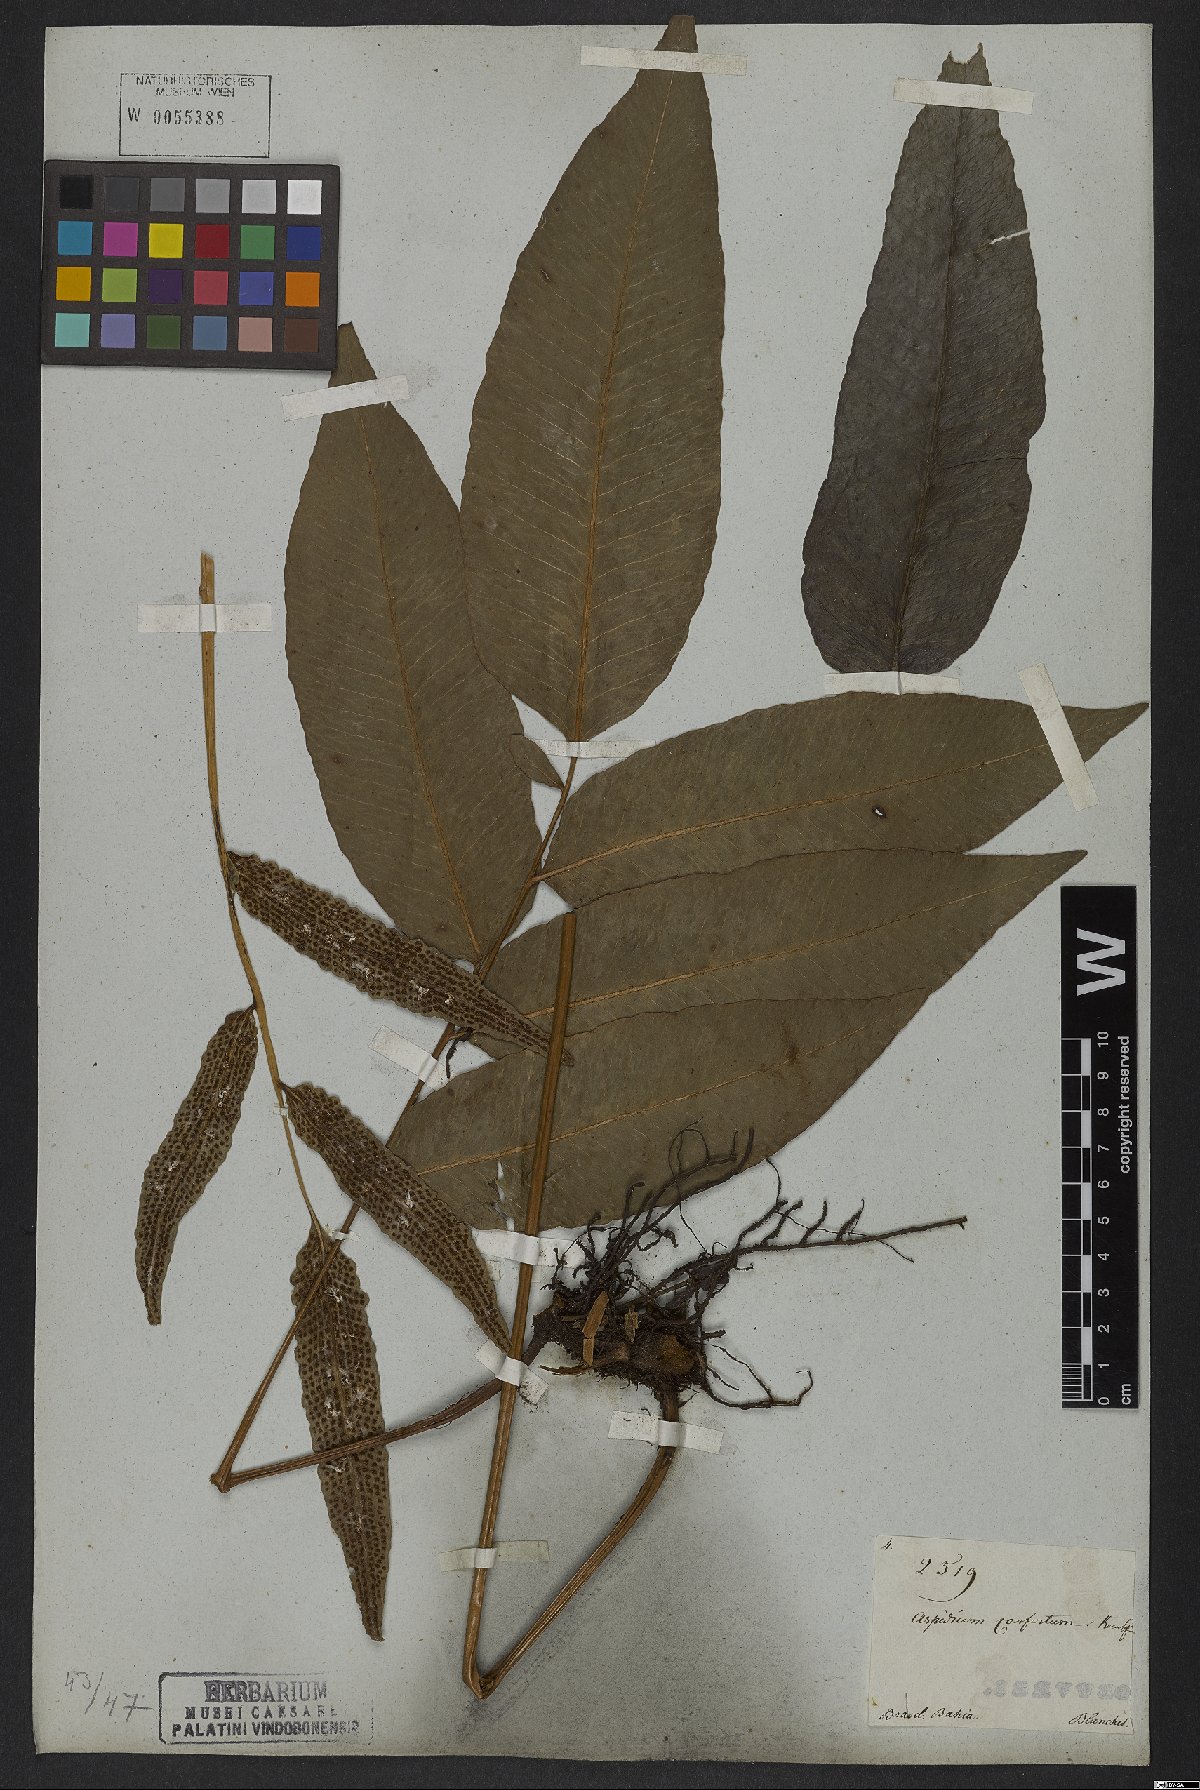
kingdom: Plantae
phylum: Tracheophyta
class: Polypodiopsida
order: Polypodiales
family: Dryopteridaceae
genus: Cyclodium
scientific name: Cyclodium meniscioides
